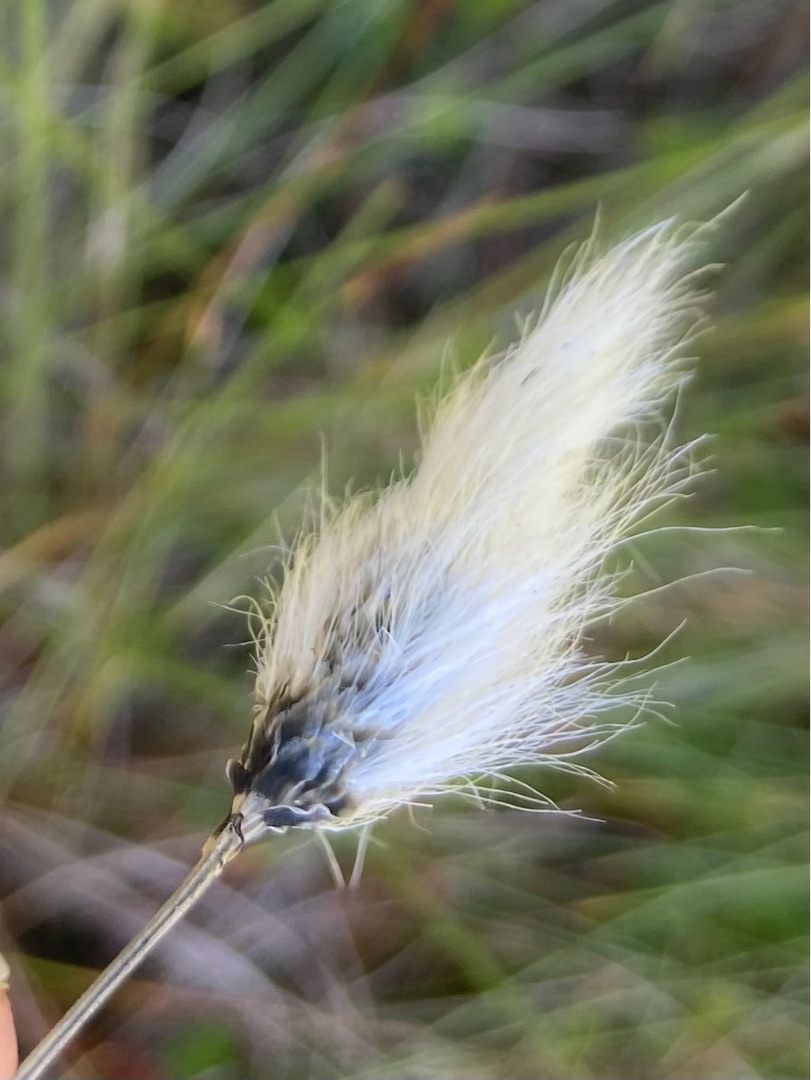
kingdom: Plantae
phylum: Tracheophyta
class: Liliopsida
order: Poales
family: Cyperaceae
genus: Eriophorum
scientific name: Eriophorum vaginatum
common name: Tue-kæruld
